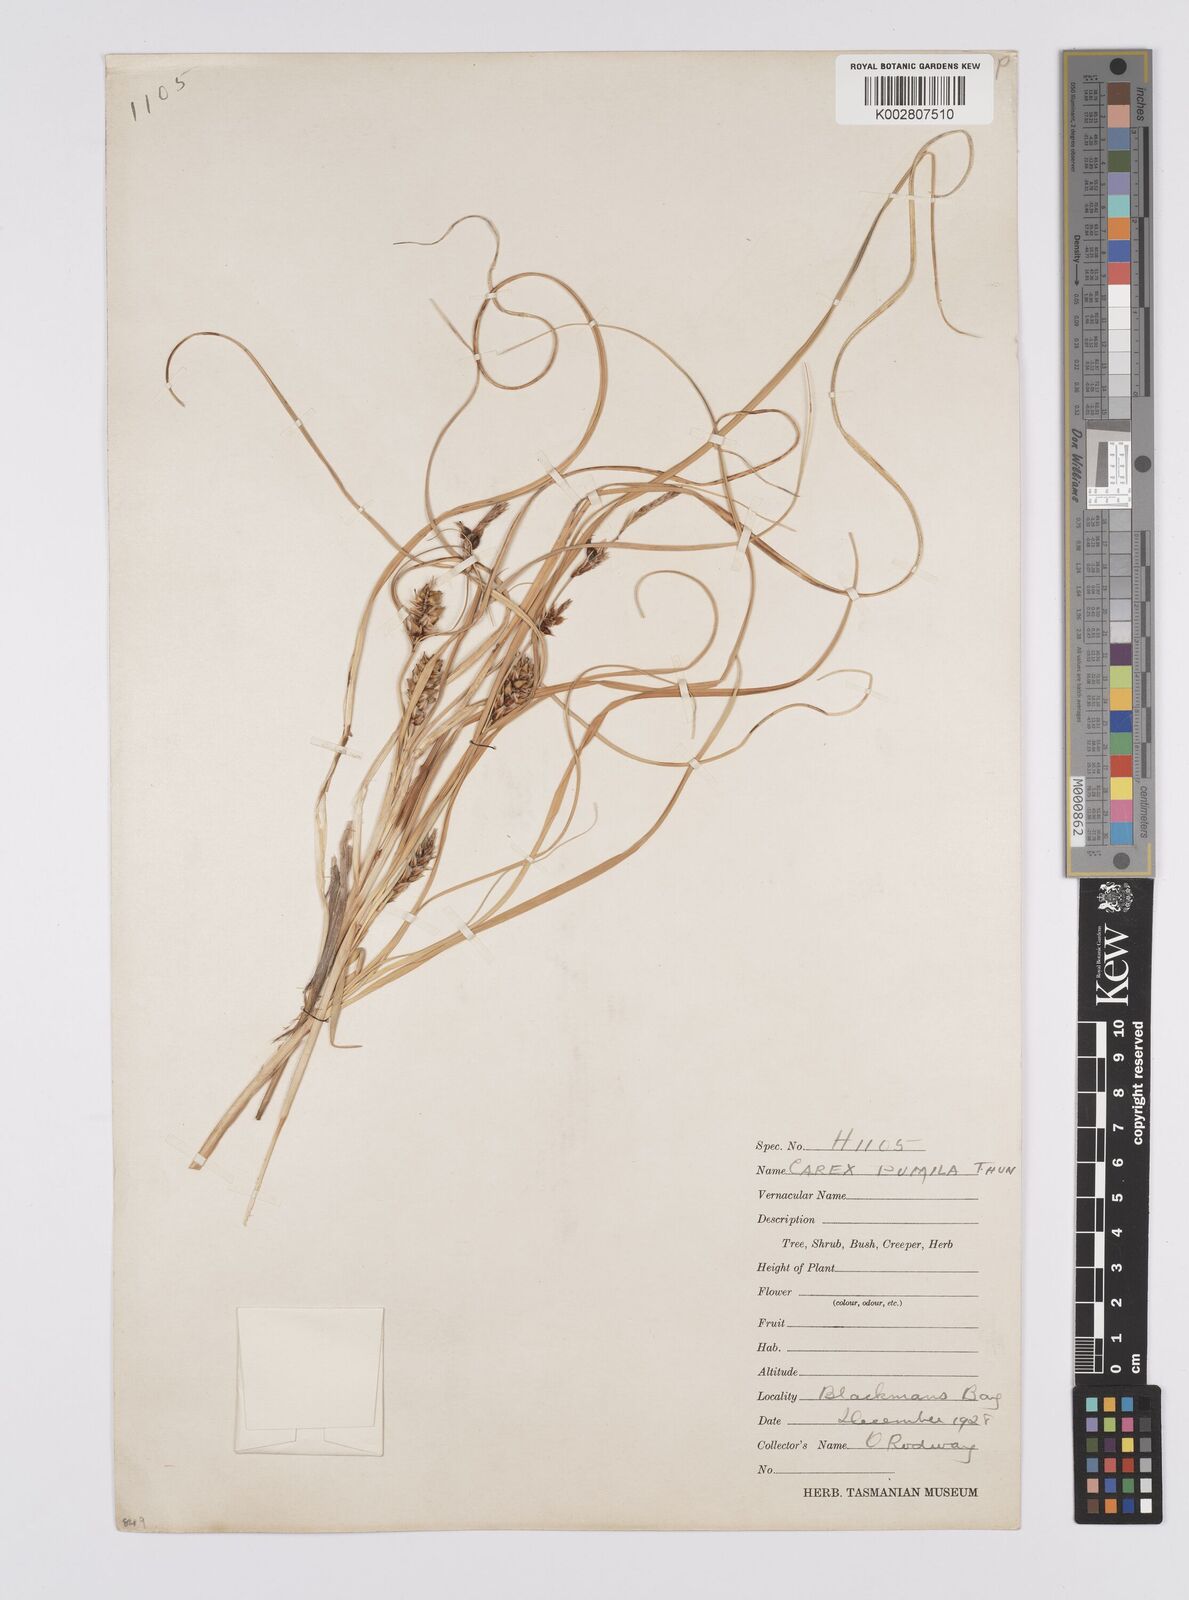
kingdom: Plantae
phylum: Tracheophyta
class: Liliopsida
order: Poales
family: Cyperaceae
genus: Carex
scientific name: Carex pumila
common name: Dwarf sedge
